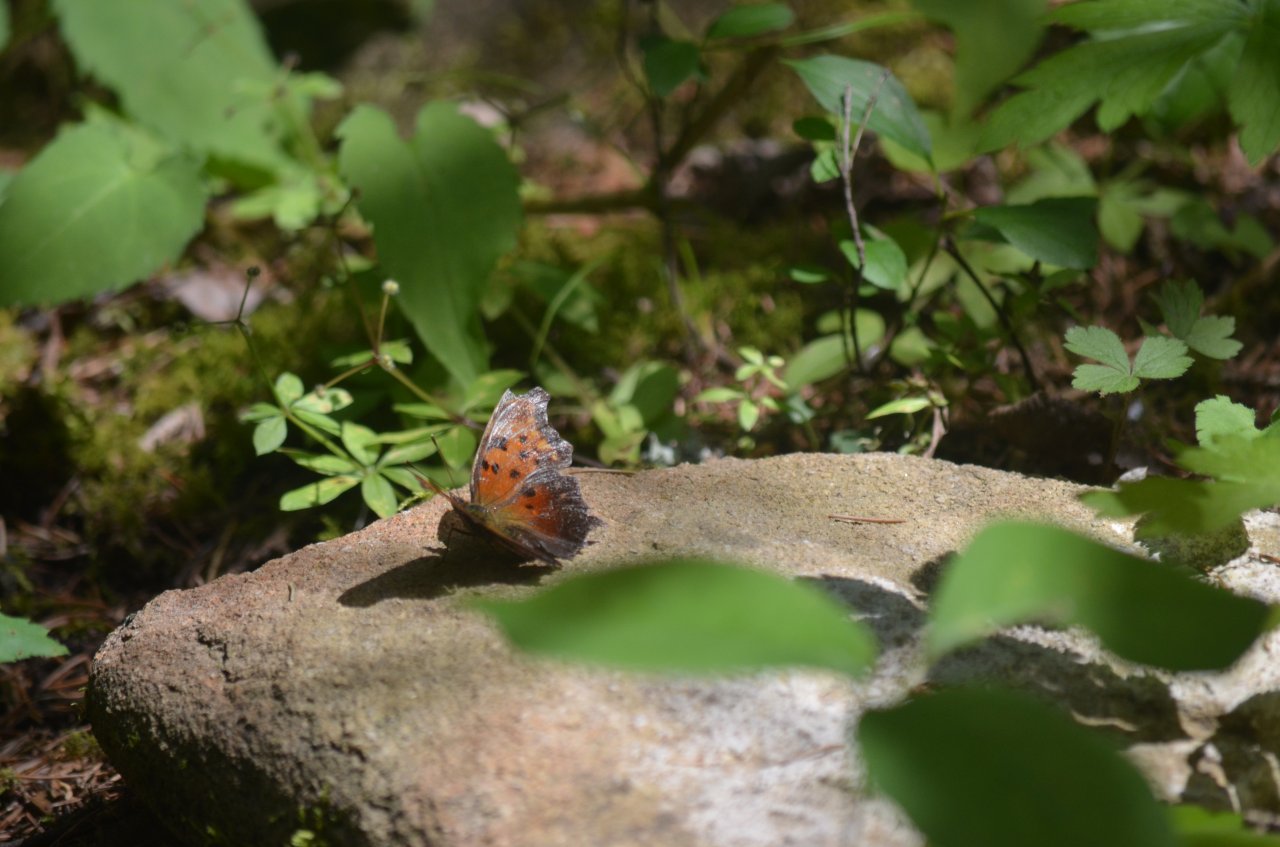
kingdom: Animalia
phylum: Arthropoda
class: Insecta
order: Lepidoptera
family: Nymphalidae
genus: Polygonia
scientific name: Polygonia progne
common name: Gray Comma
